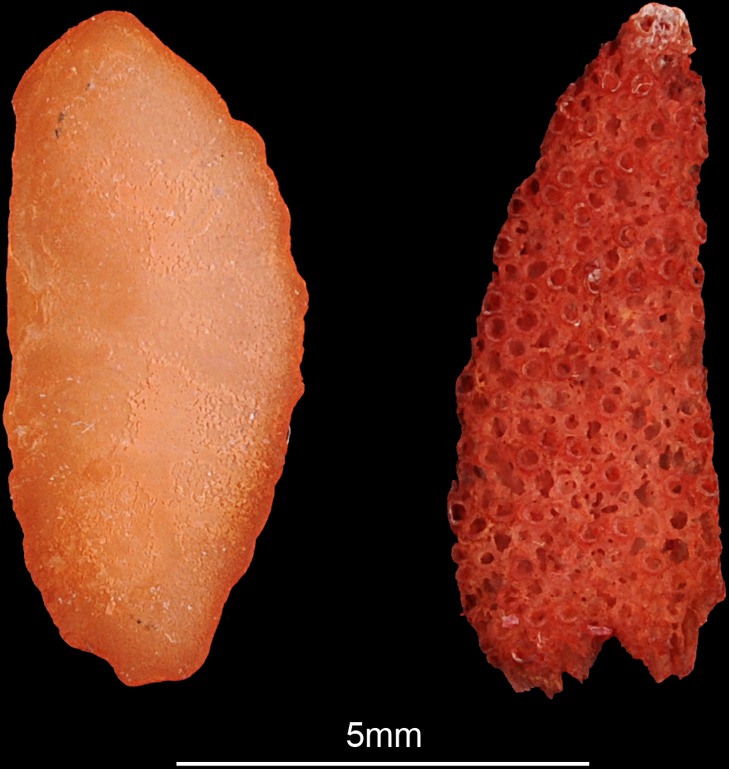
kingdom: Animalia
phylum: Chordata
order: Gadiformes
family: Lotidae
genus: Lota
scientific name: Lota lota
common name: Burbot
